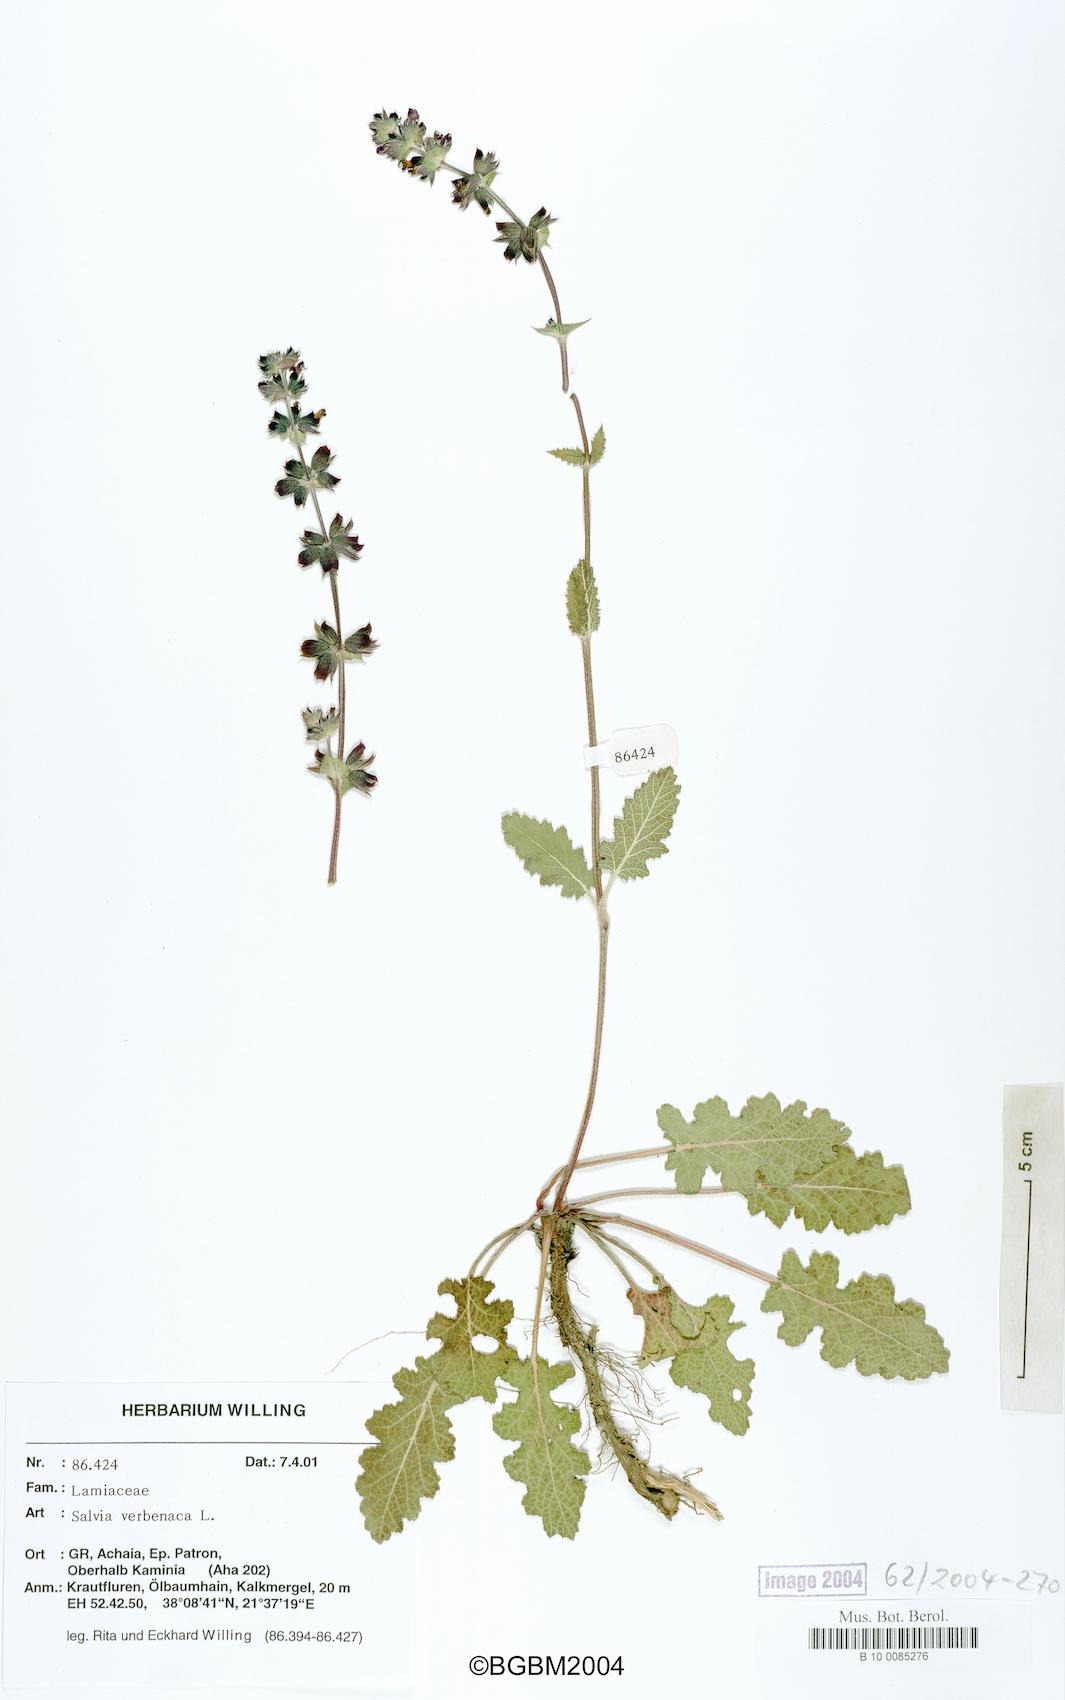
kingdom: Plantae
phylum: Tracheophyta
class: Magnoliopsida
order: Lamiales
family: Lamiaceae
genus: Salvia
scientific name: Salvia verbenaca
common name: Wild clary
